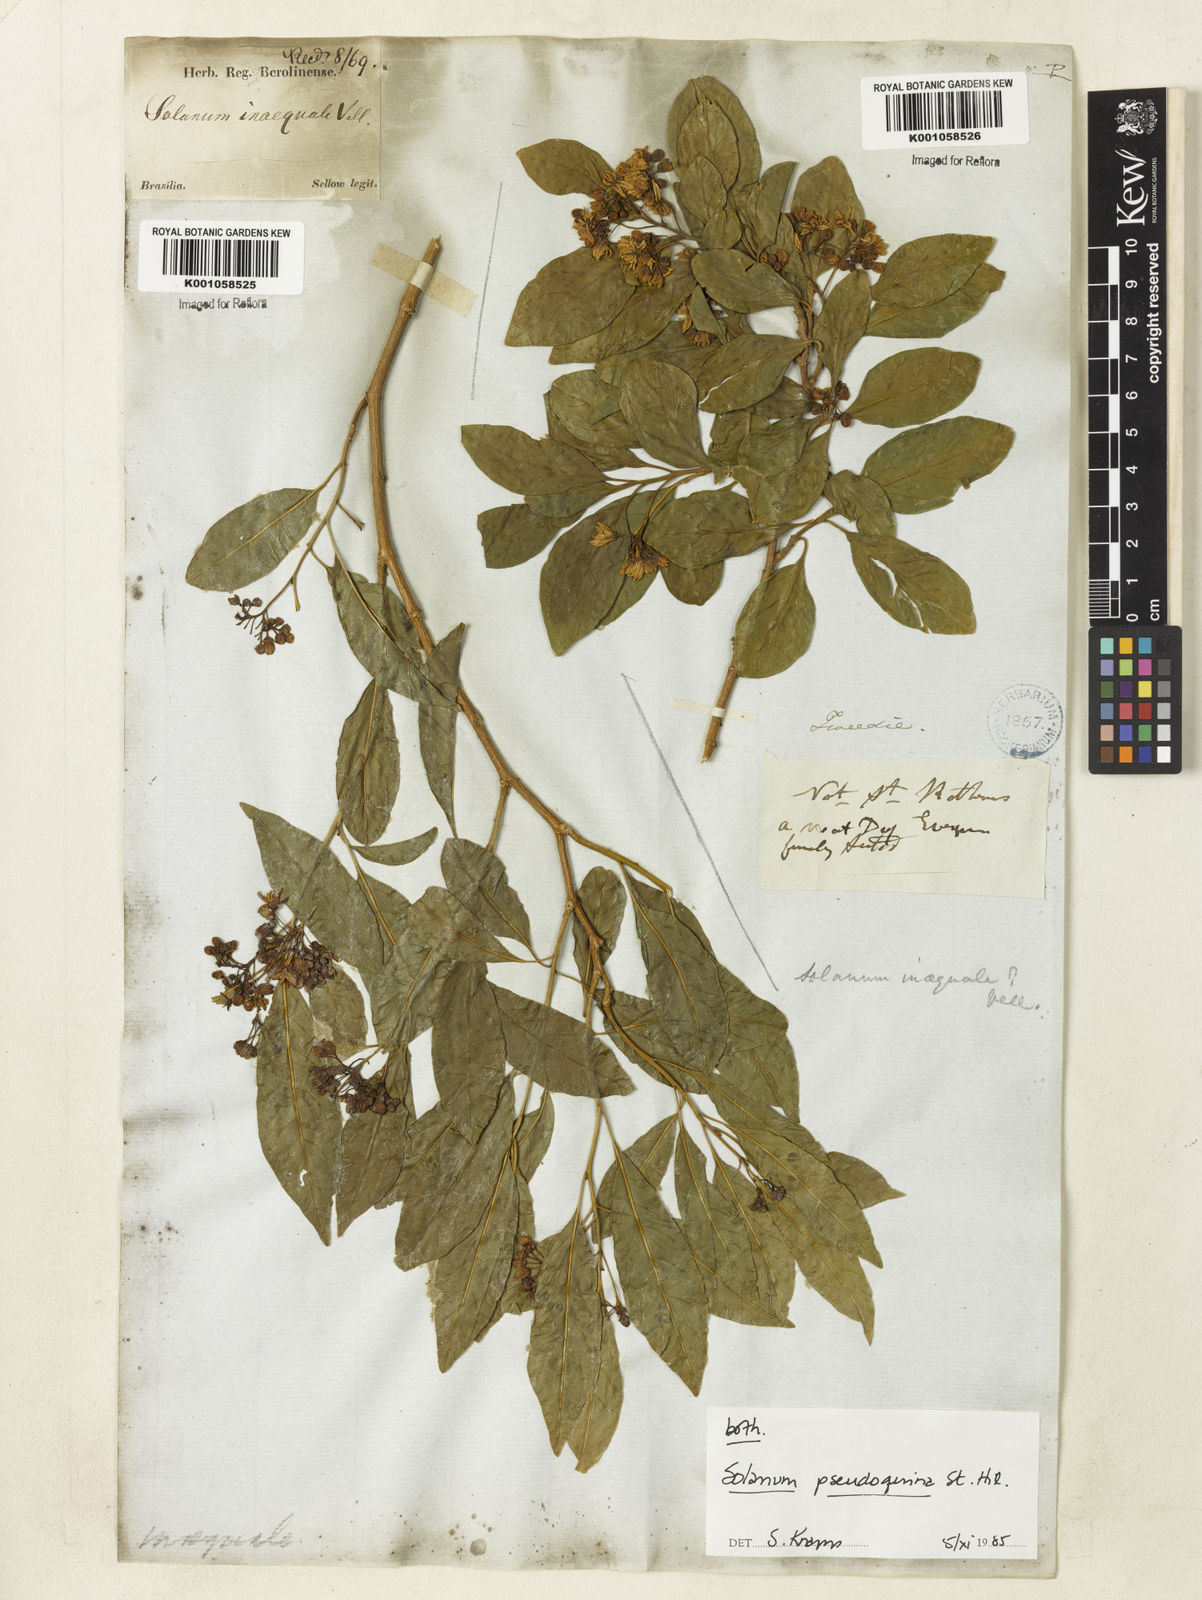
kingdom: Plantae
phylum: Tracheophyta
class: Magnoliopsida
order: Solanales
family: Solanaceae
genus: Solanum
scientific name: Solanum pseudoquina
